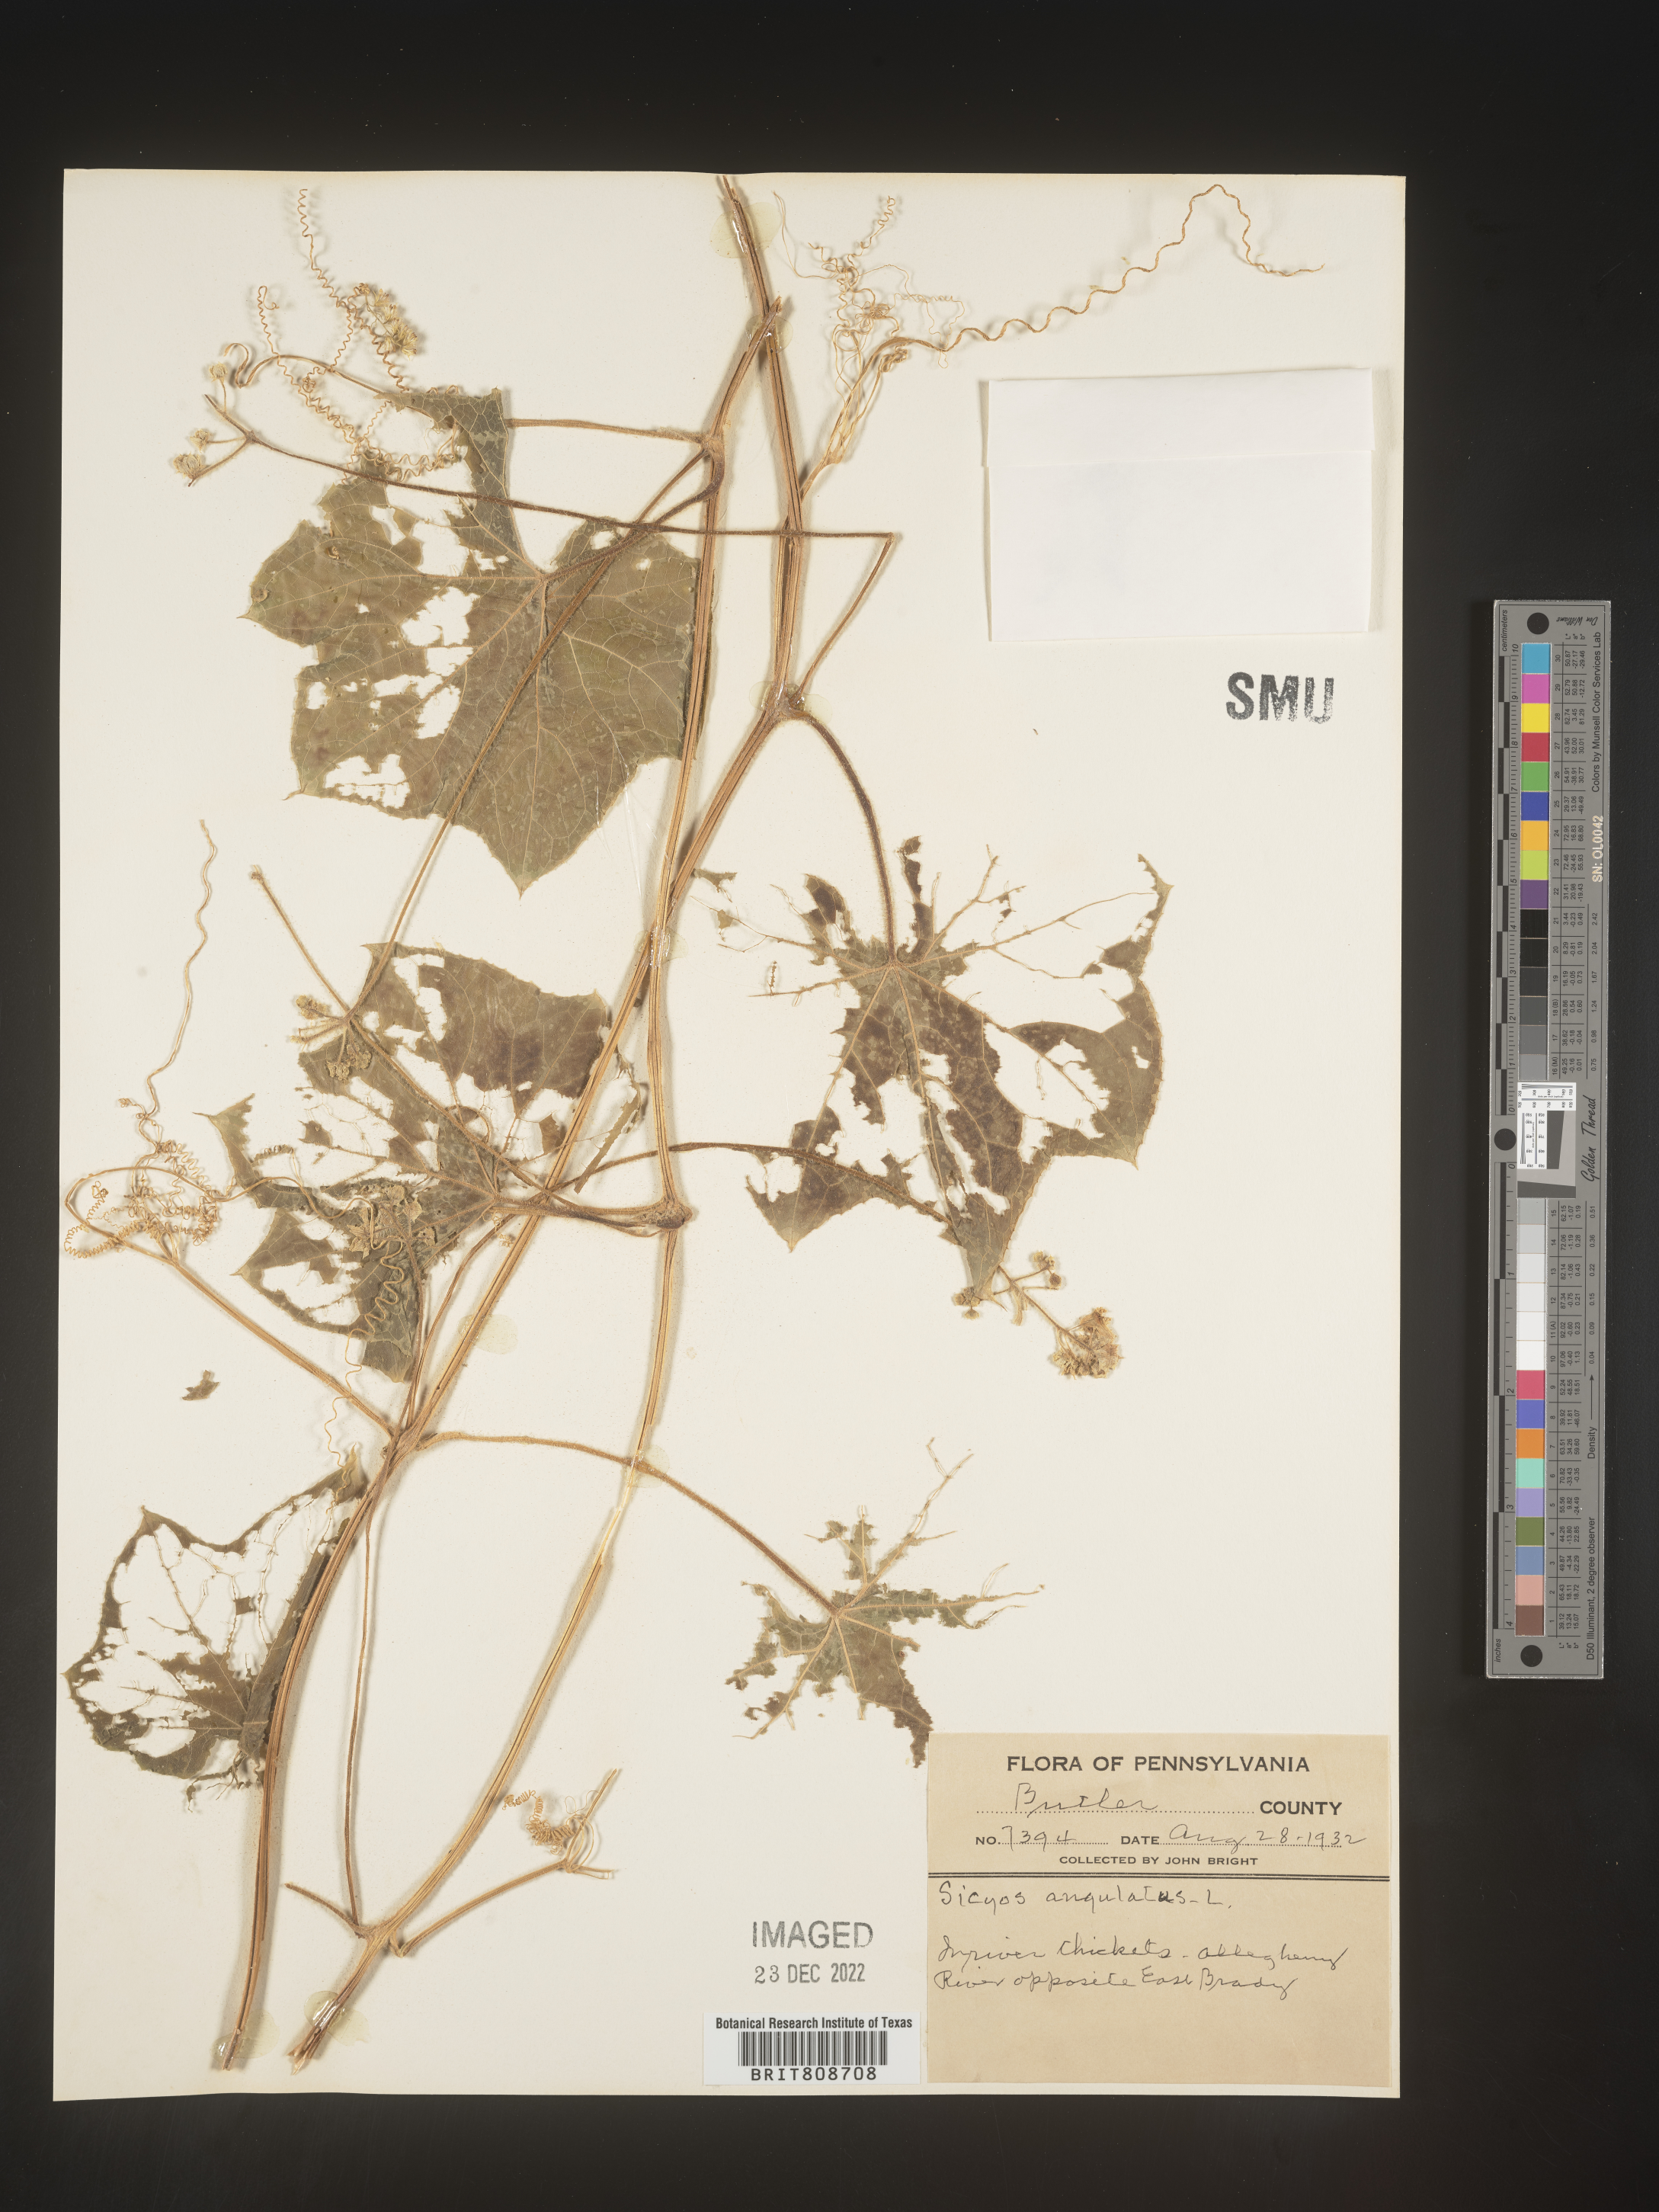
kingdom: Plantae
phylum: Tracheophyta
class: Magnoliopsida
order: Cucurbitales
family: Cucurbitaceae
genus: Sicyos
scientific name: Sicyos angulatus
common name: Angled burr cucumber
